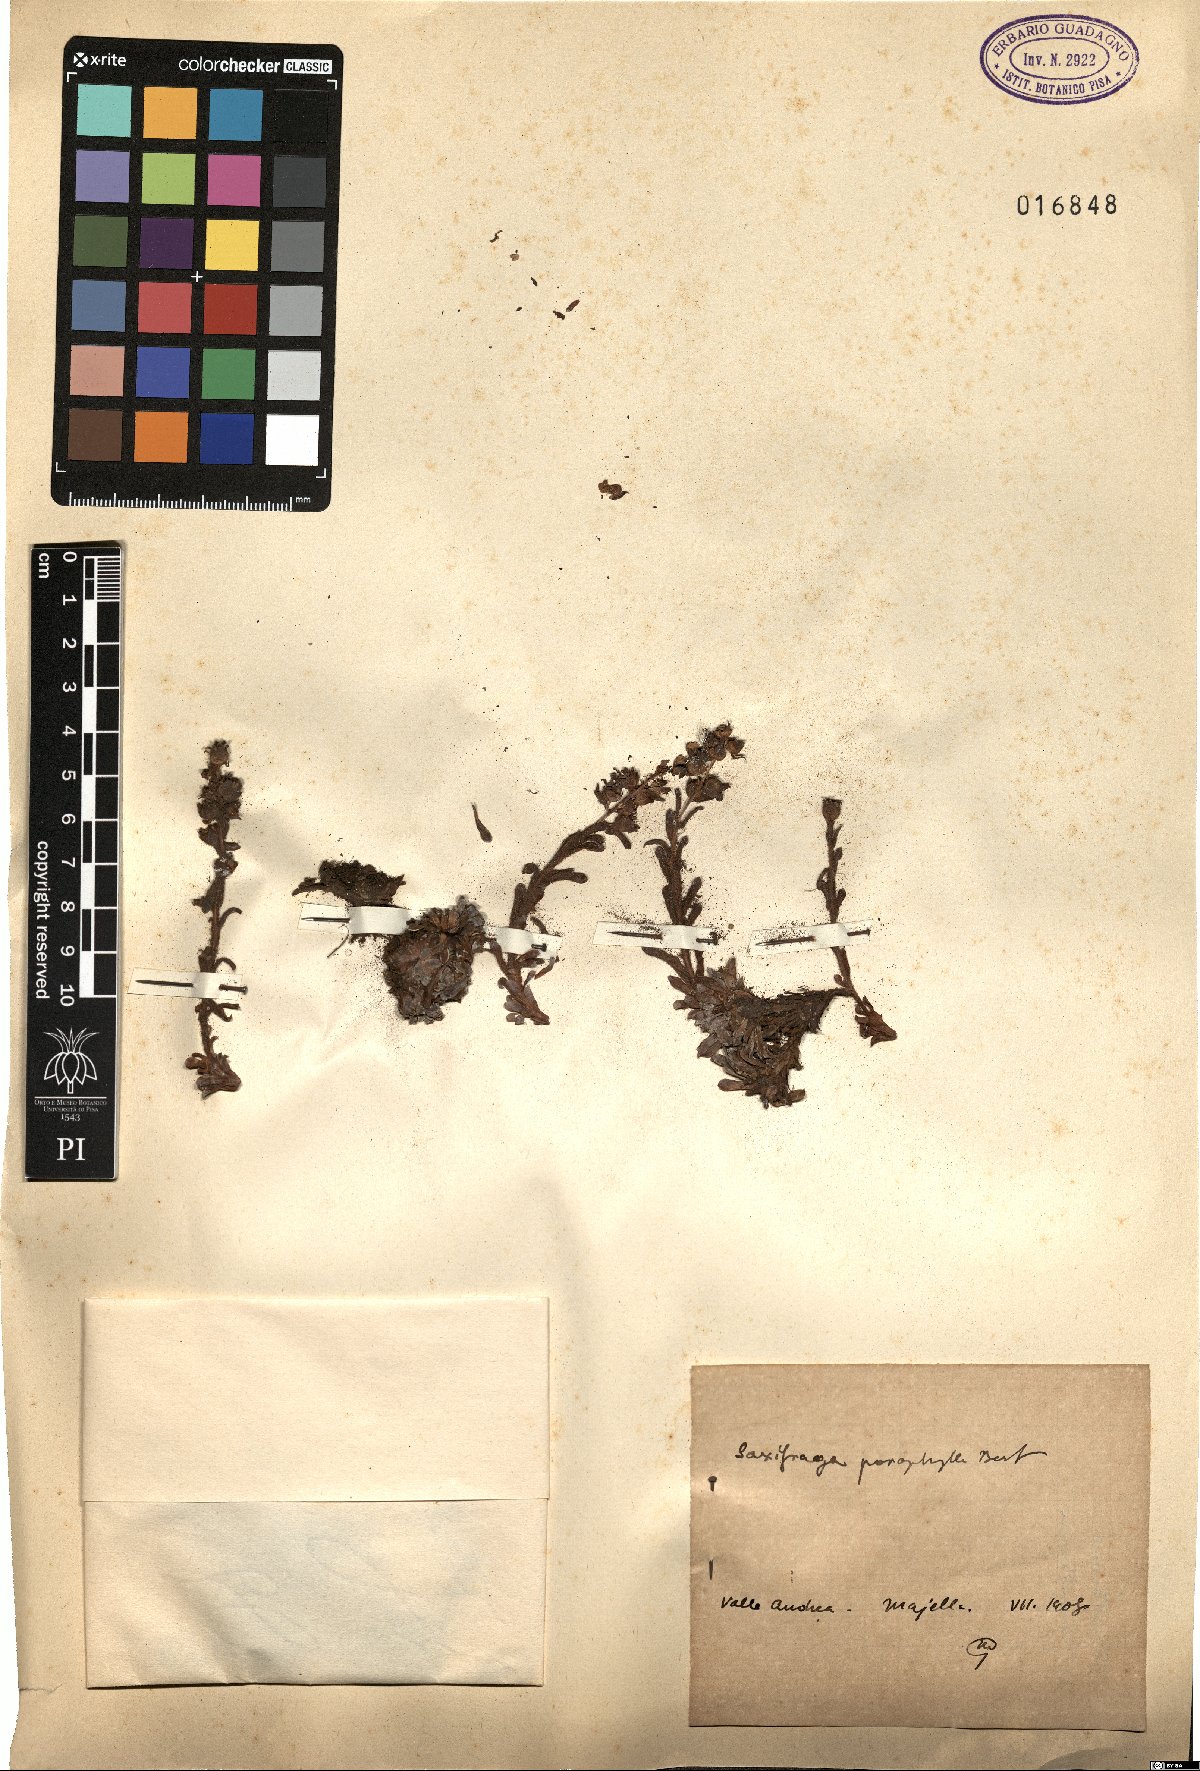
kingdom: Plantae
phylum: Tracheophyta
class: Magnoliopsida
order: Saxifragales
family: Saxifragaceae
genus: Saxifraga
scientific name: Saxifraga porophylla
